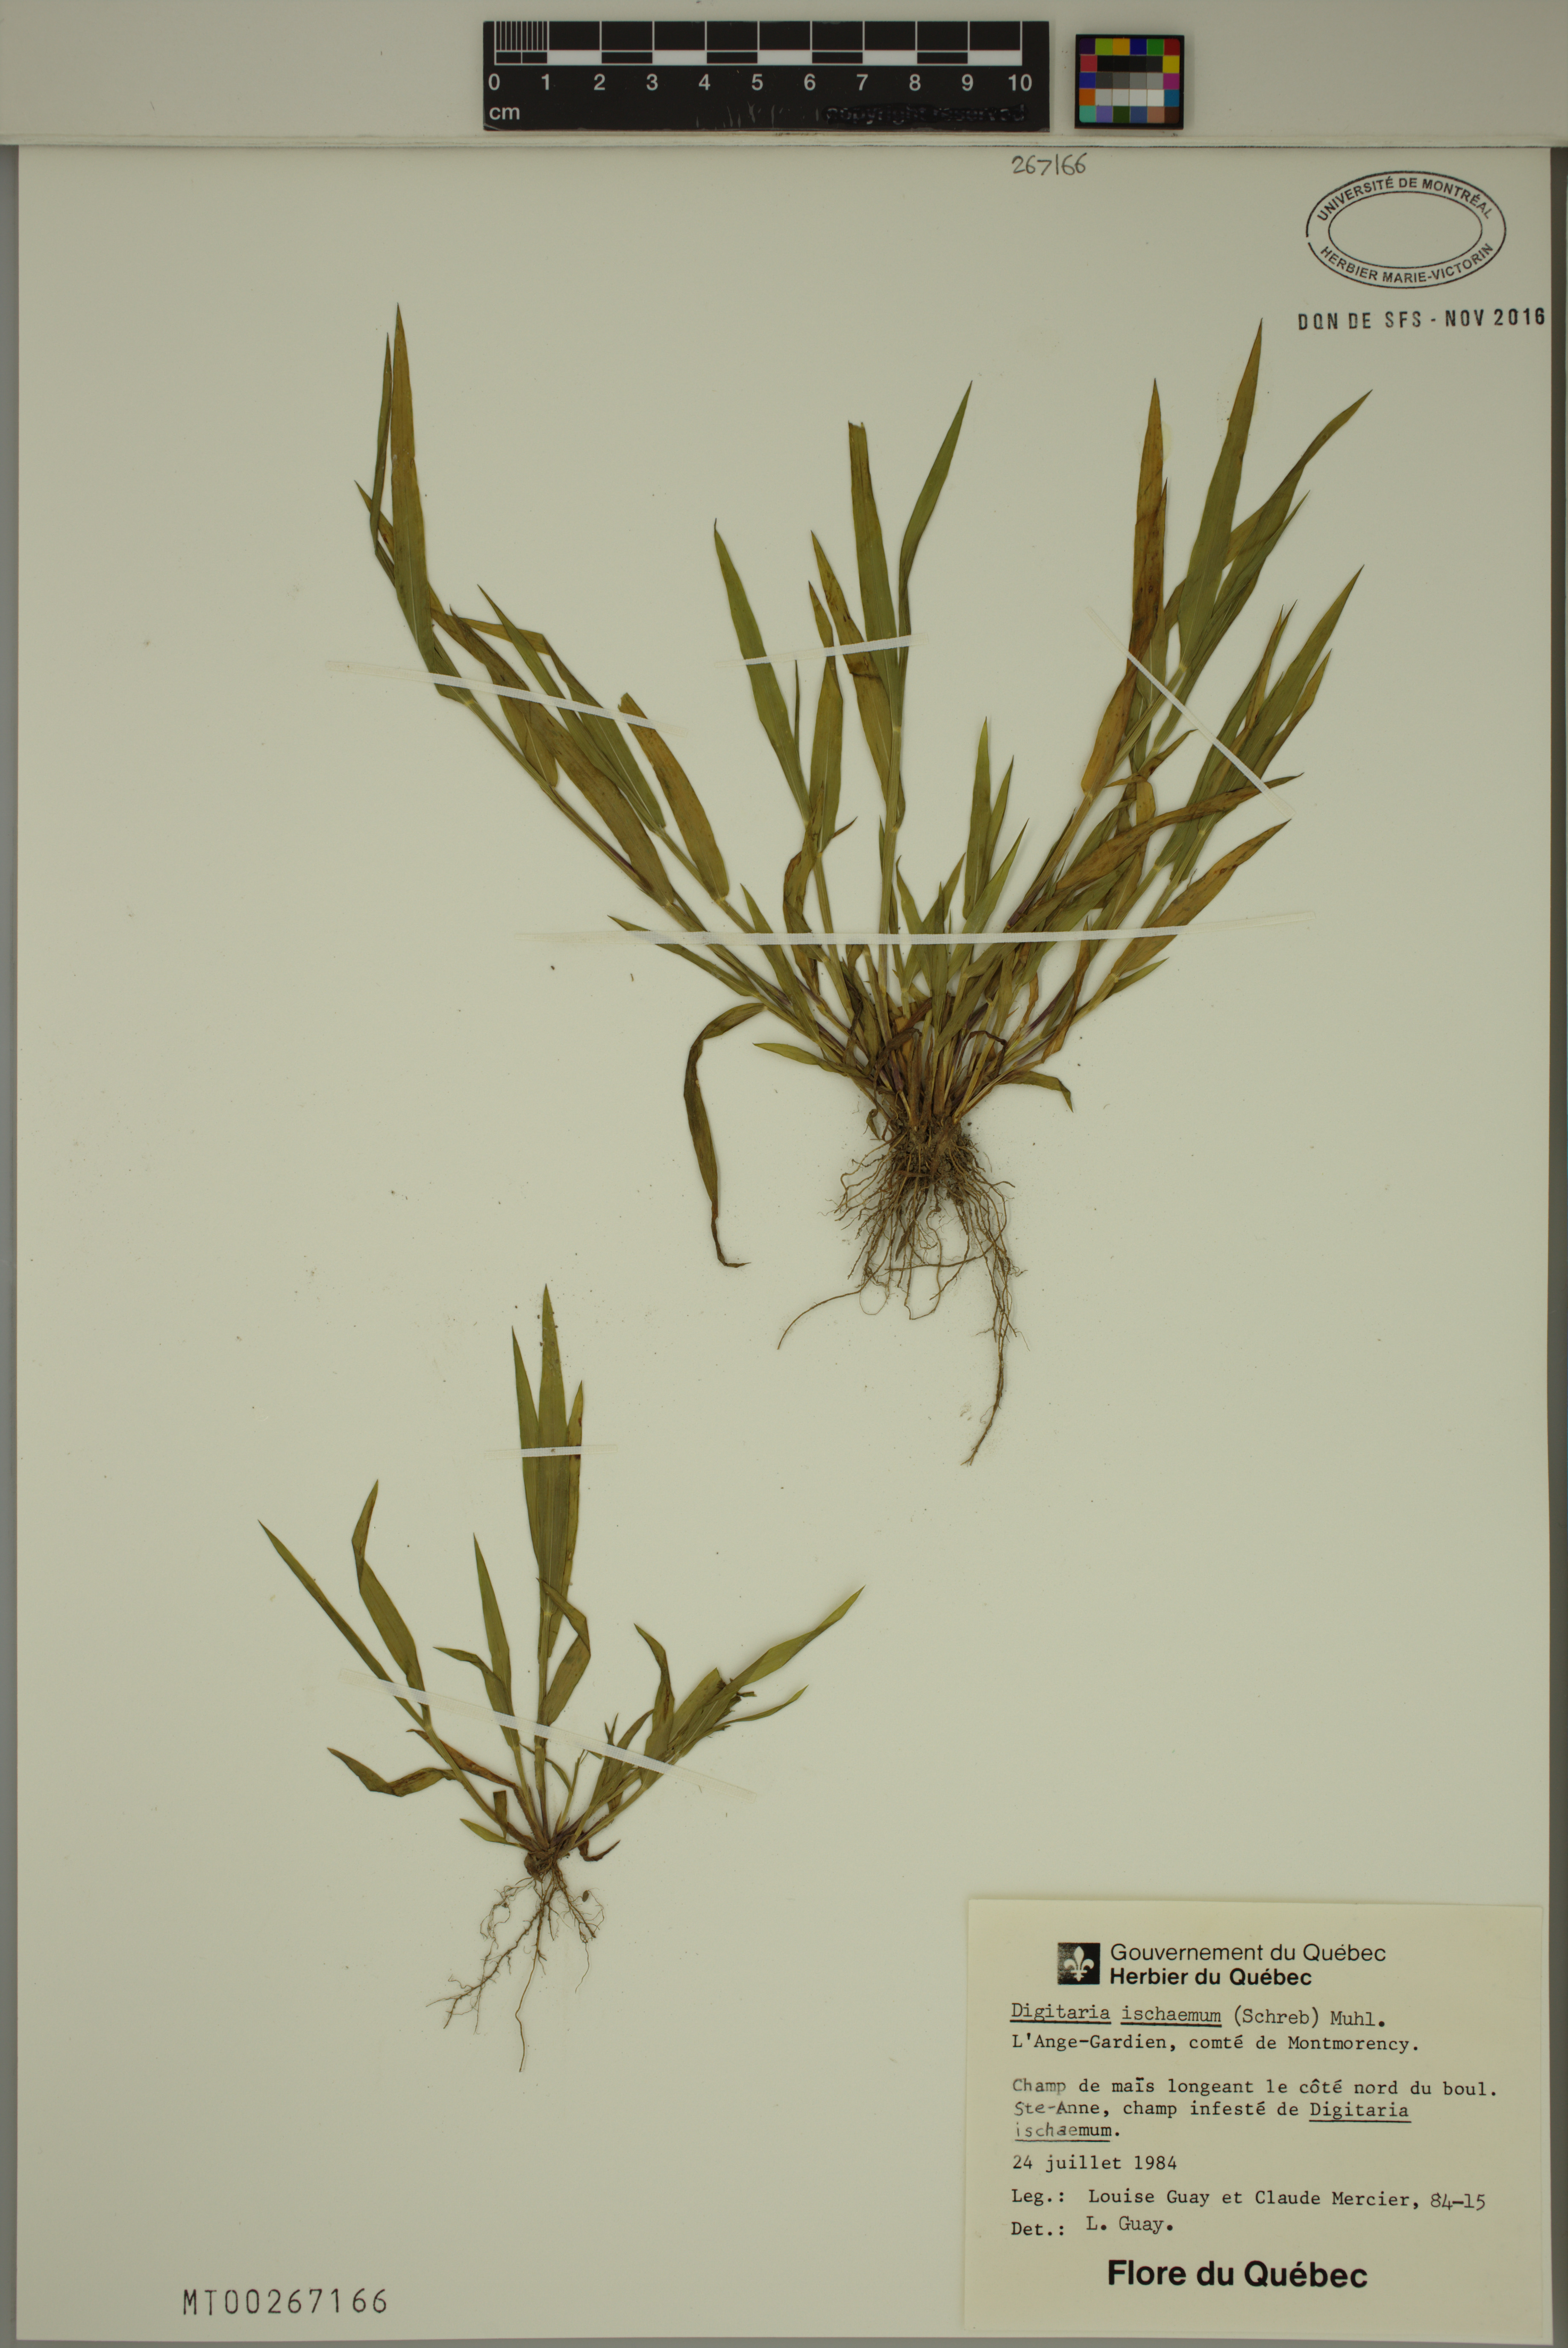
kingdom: Plantae
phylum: Tracheophyta
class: Liliopsida
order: Poales
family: Poaceae
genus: Digitaria
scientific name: Digitaria ischaemum
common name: Smooth crabgrass
